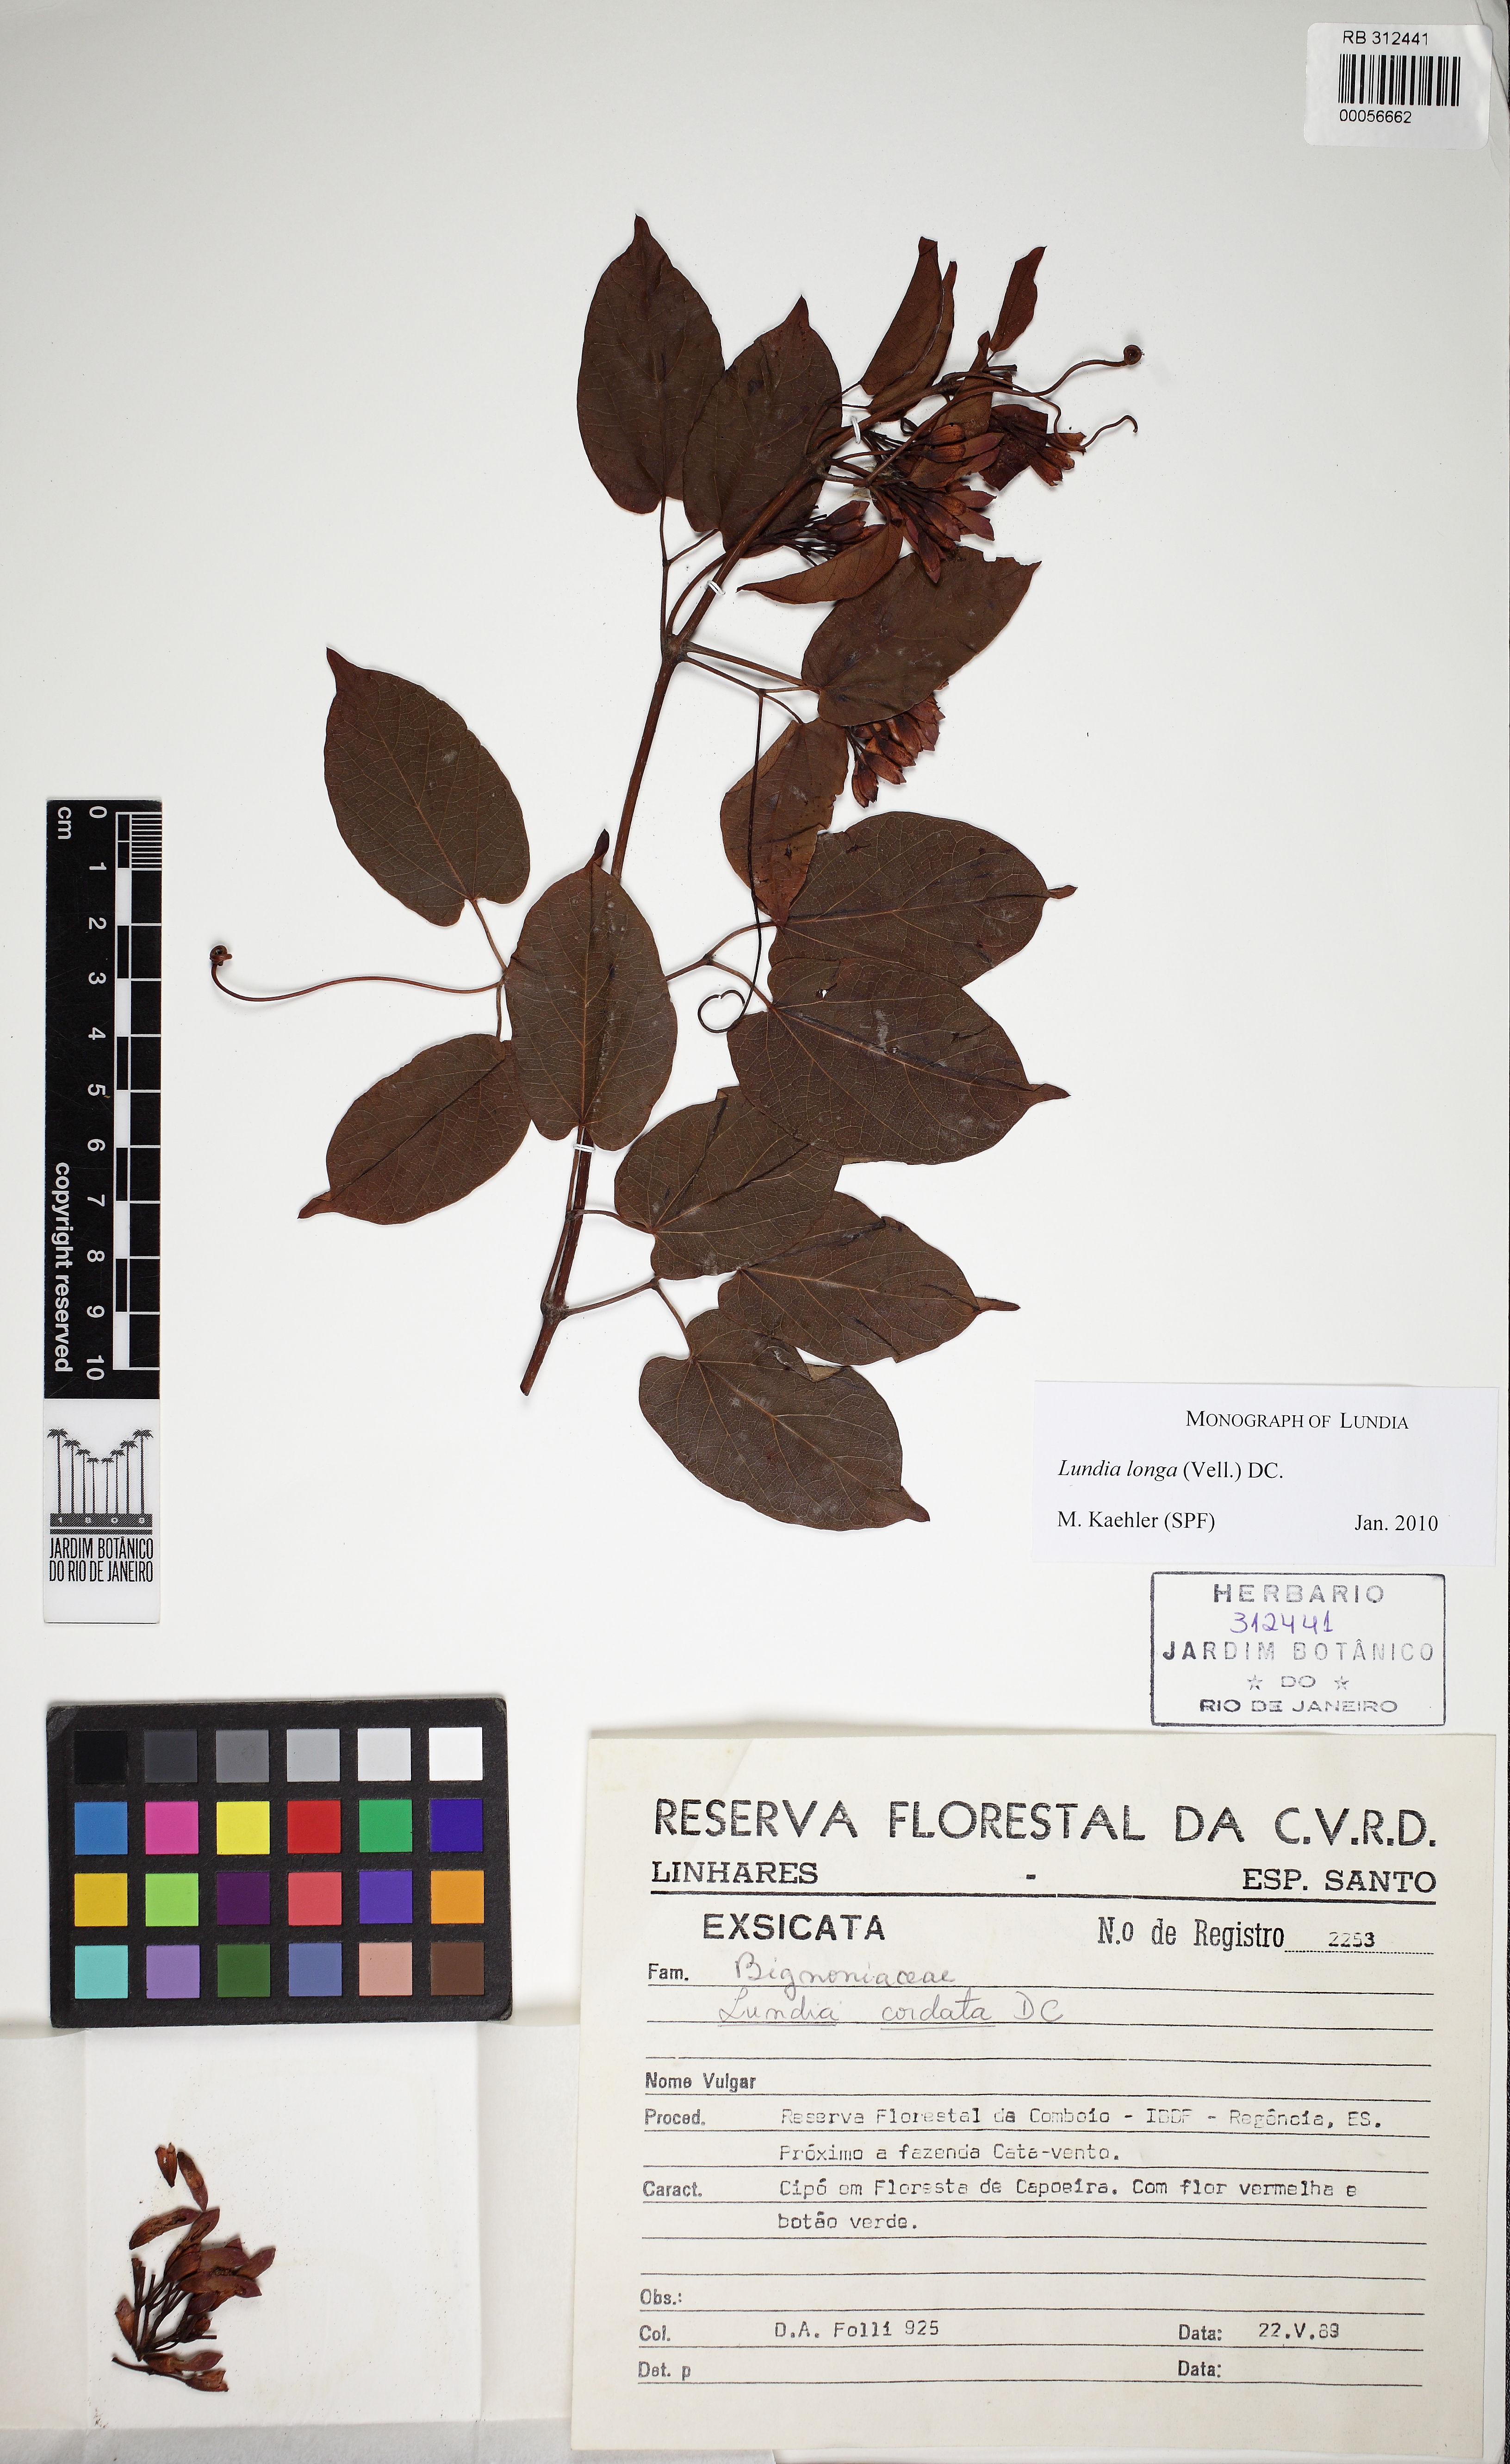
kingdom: Plantae
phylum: Tracheophyta
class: Magnoliopsida
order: Lamiales
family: Bignoniaceae
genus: Lundia
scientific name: Lundia longa
